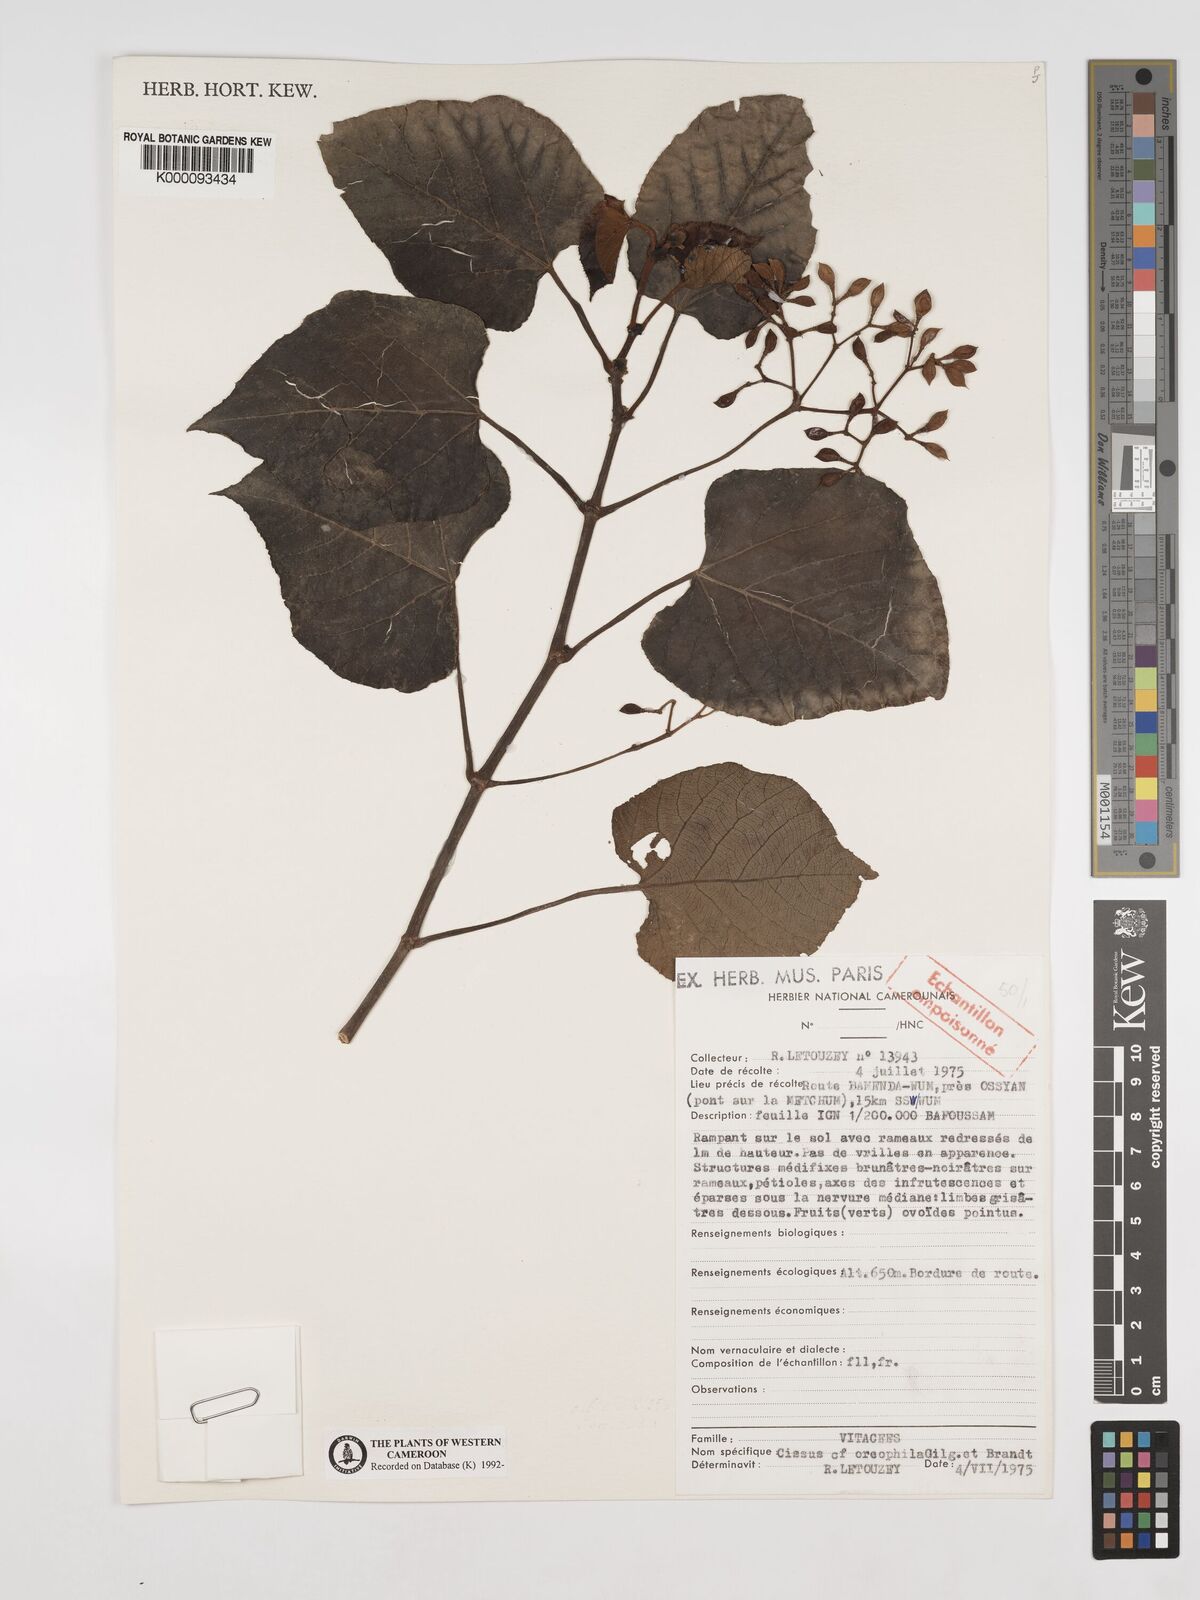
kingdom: Plantae
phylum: Tracheophyta
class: Magnoliopsida
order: Vitales
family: Vitaceae
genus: Cissus
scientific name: Cissus oreophila
